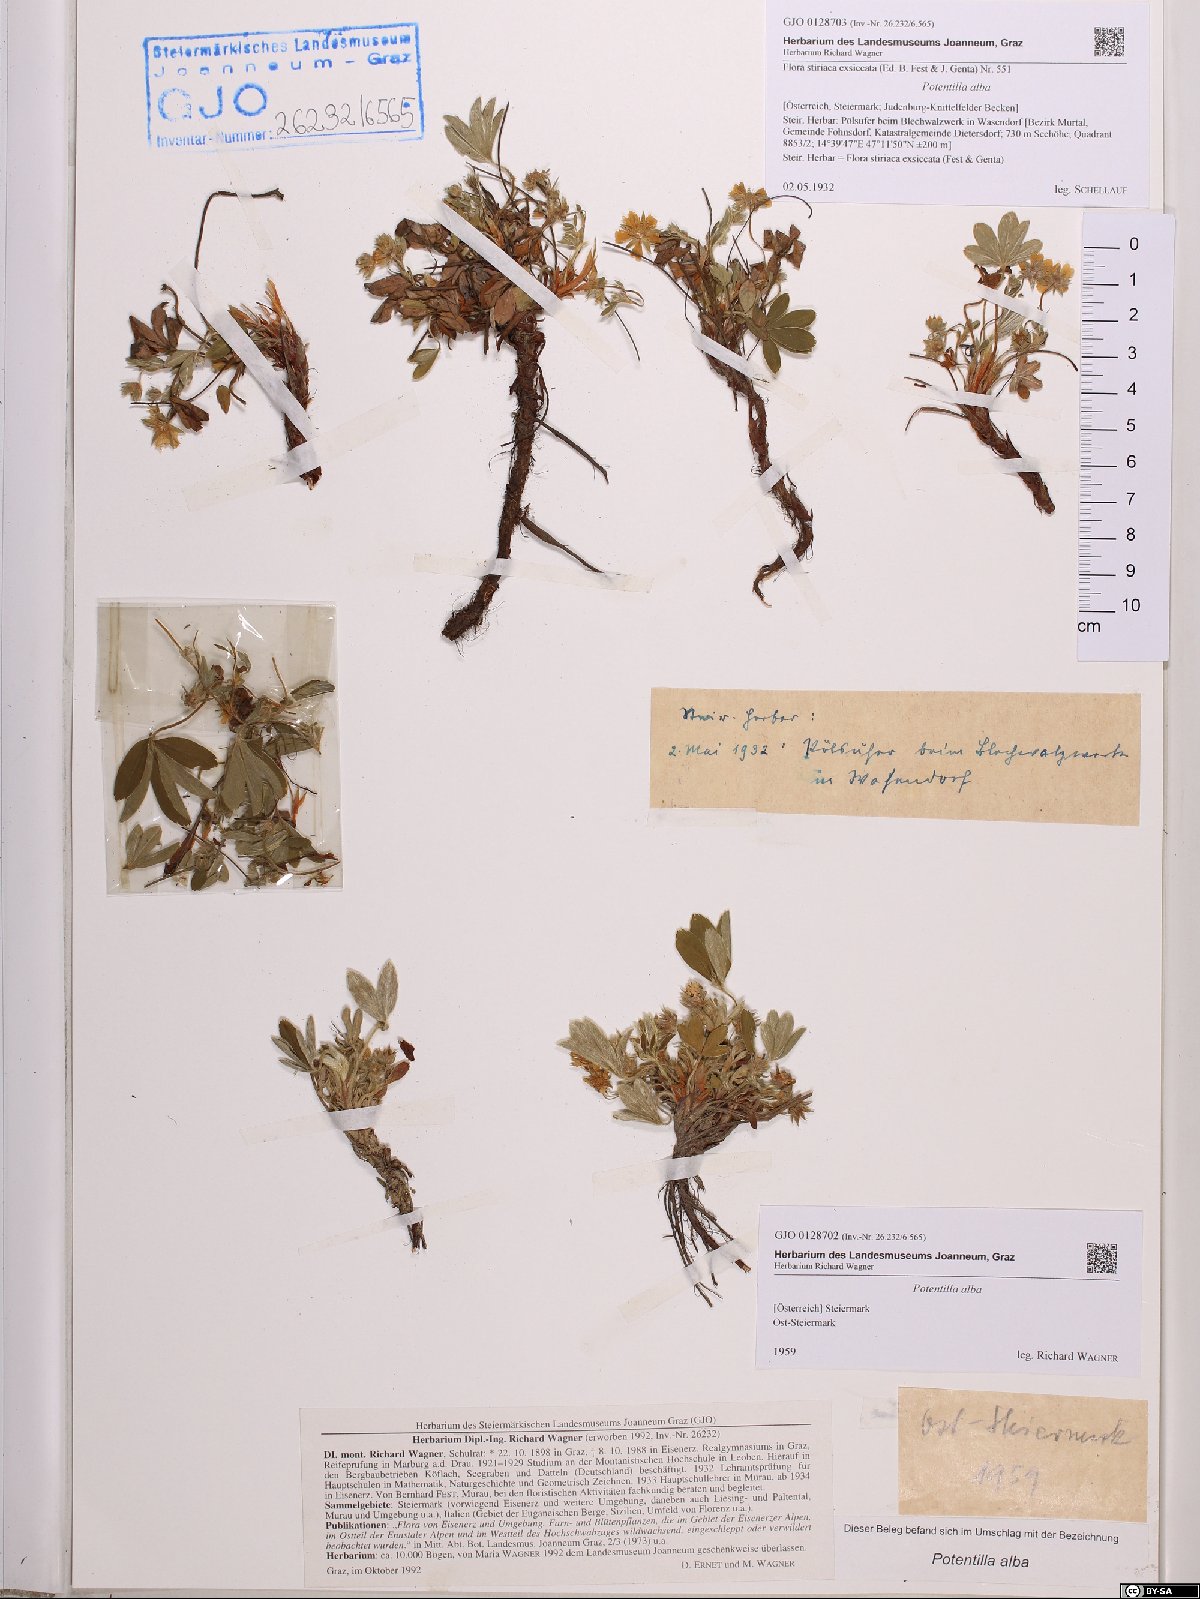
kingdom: Plantae
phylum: Tracheophyta
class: Magnoliopsida
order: Rosales
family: Rosaceae
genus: Potentilla
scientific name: Potentilla alba
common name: White cinquefoil
